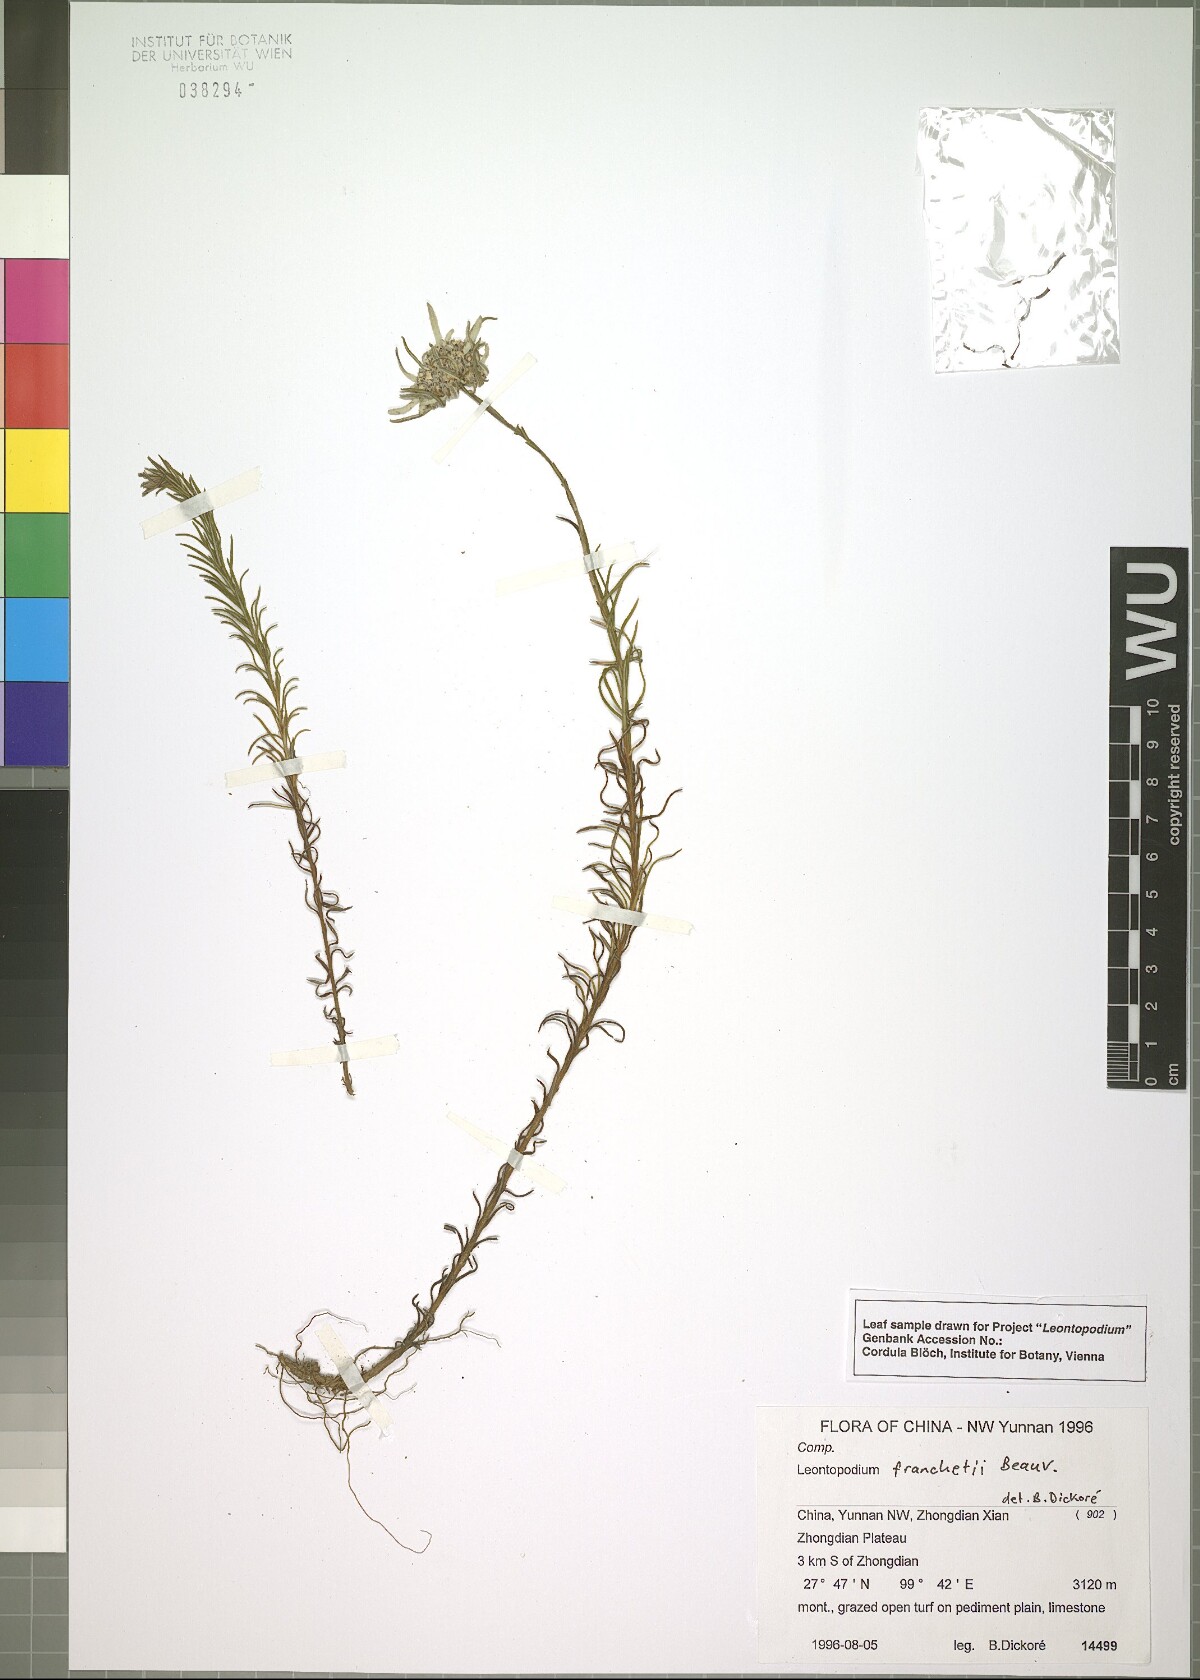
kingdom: Plantae
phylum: Tracheophyta
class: Magnoliopsida
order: Asterales
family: Asteraceae
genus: Leontopodium
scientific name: Leontopodium franchetii
